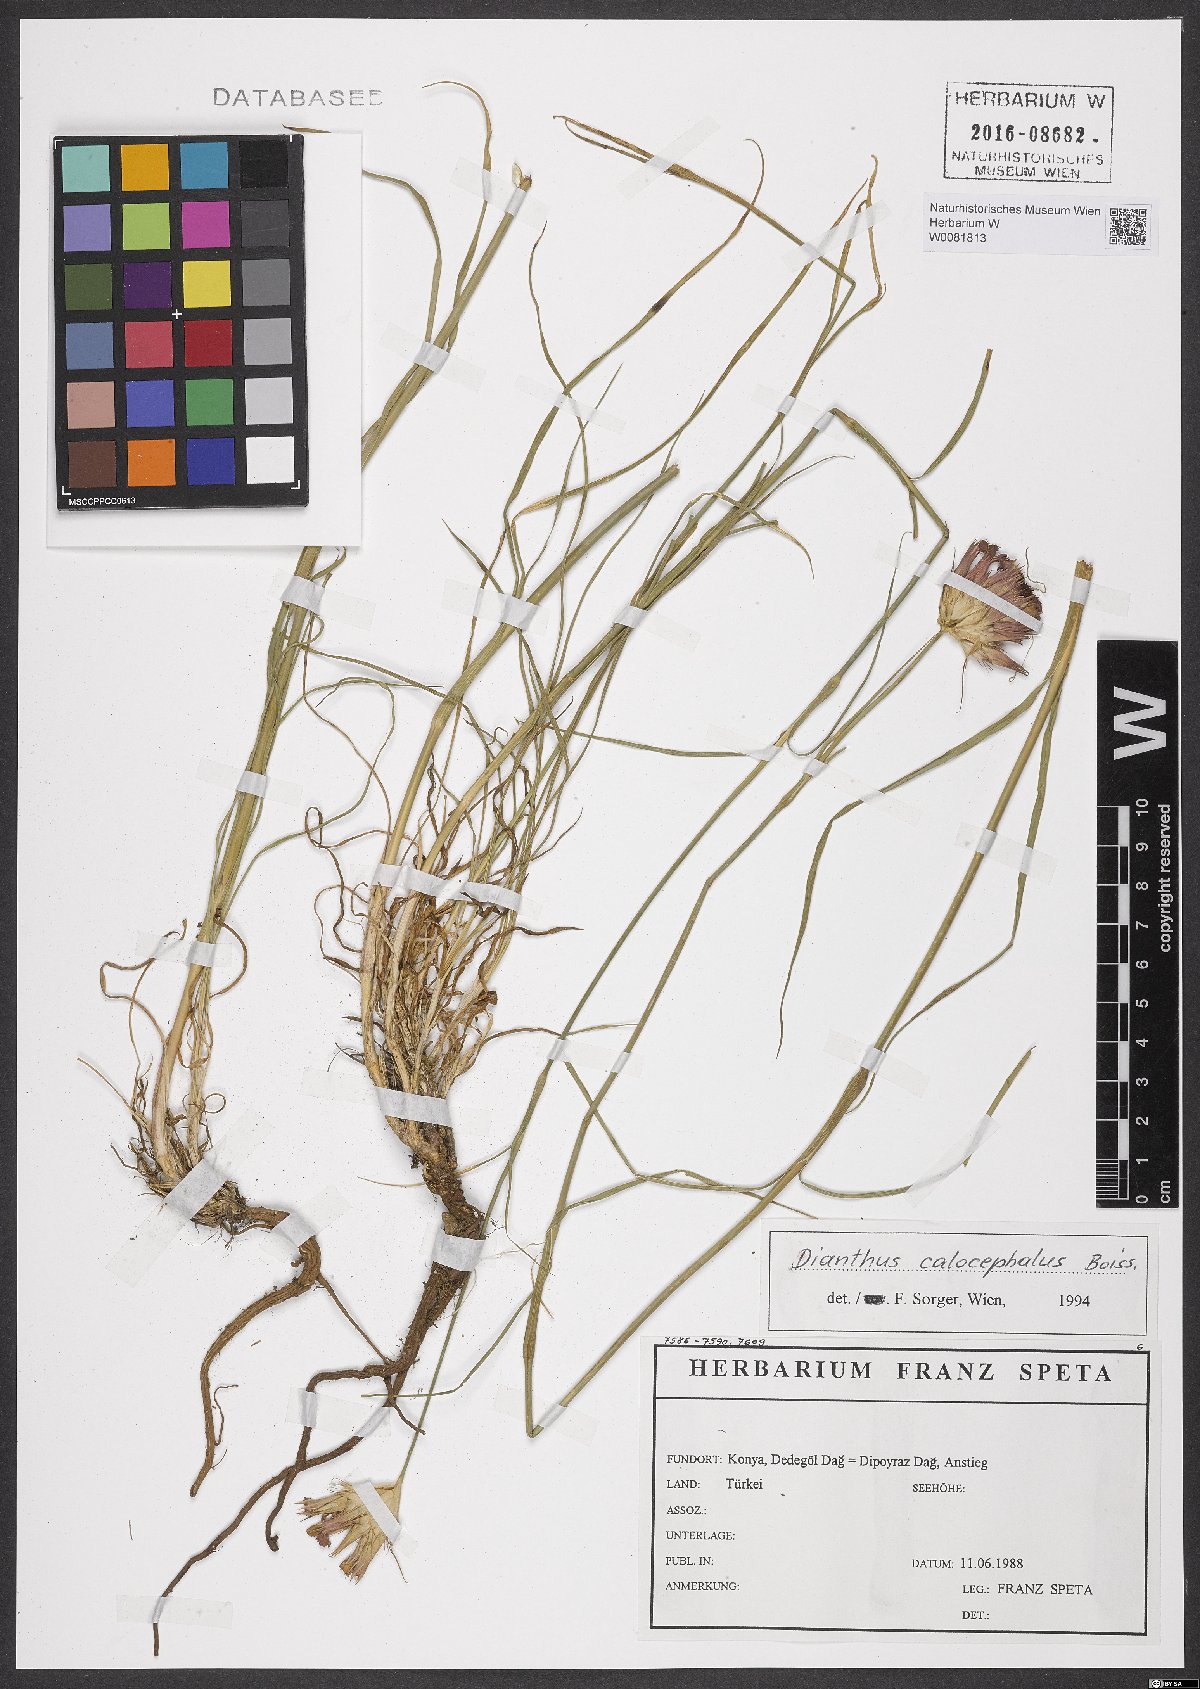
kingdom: Plantae
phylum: Tracheophyta
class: Magnoliopsida
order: Caryophyllales
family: Caryophyllaceae
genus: Dianthus
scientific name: Dianthus cruentus
